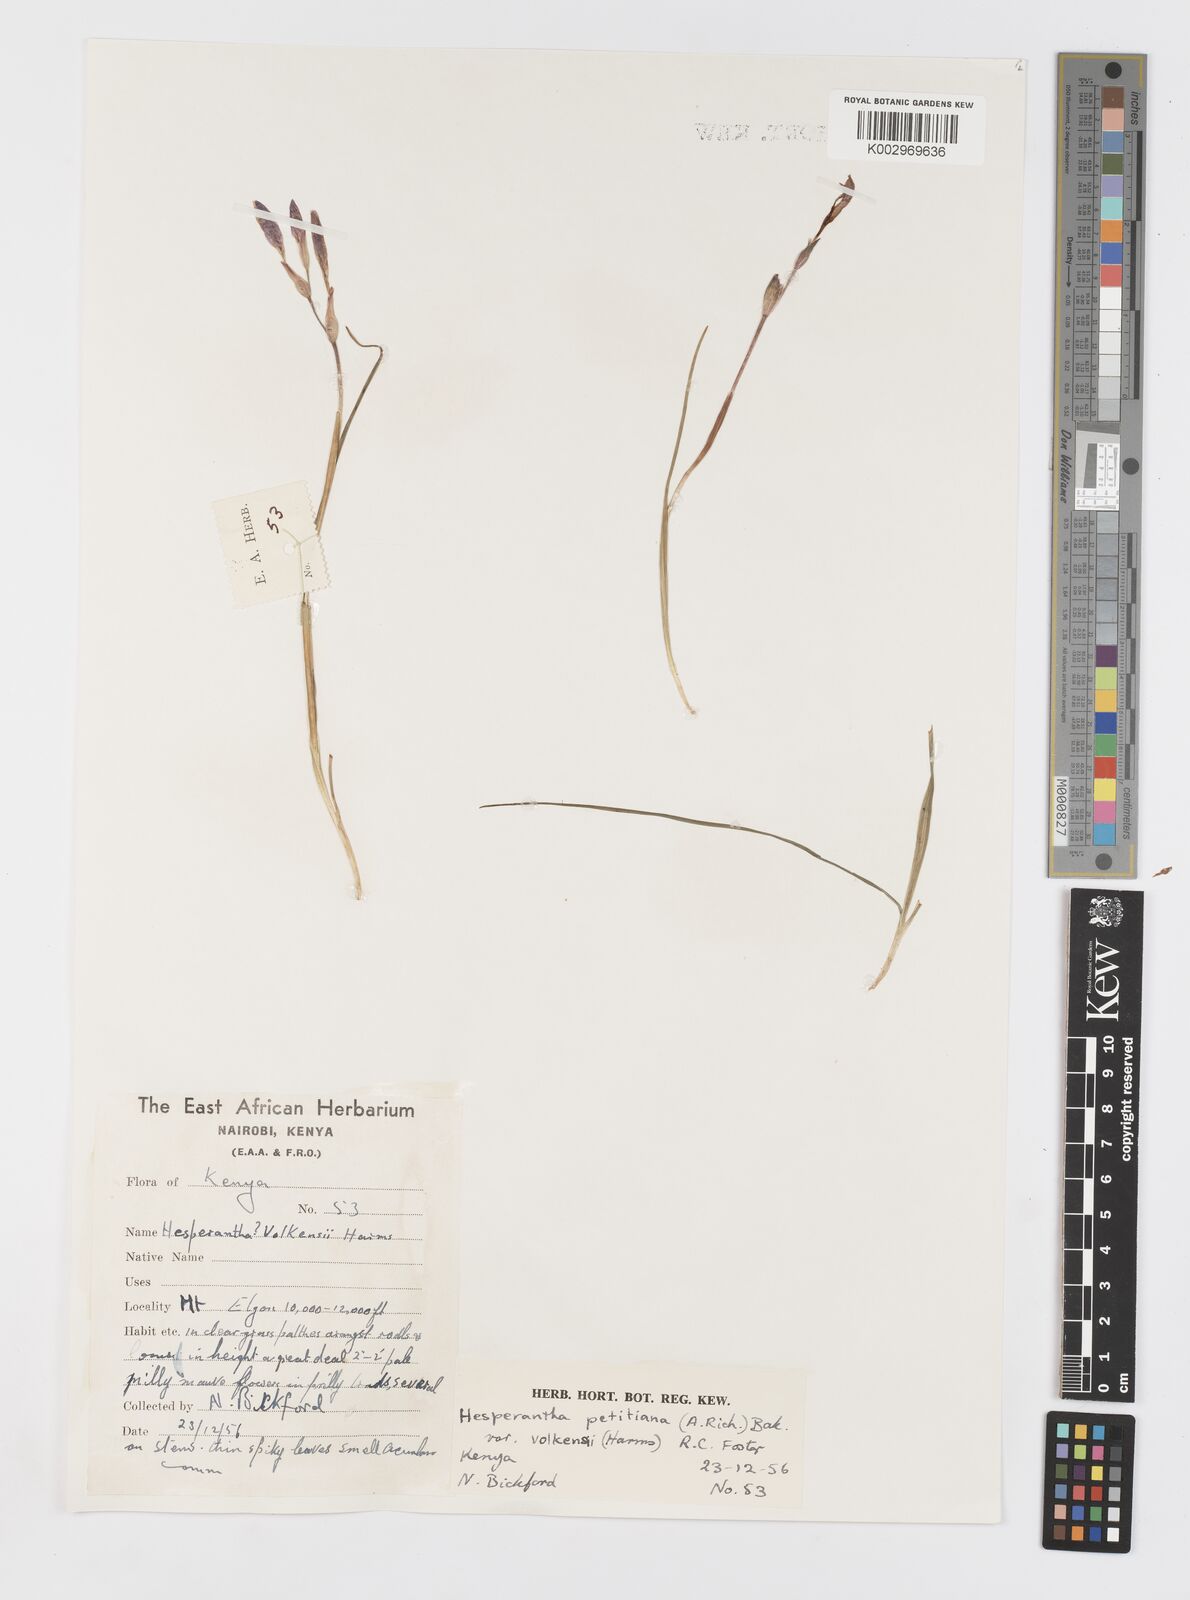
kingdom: Plantae
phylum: Tracheophyta
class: Liliopsida
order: Asparagales
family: Iridaceae
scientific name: Iridaceae
